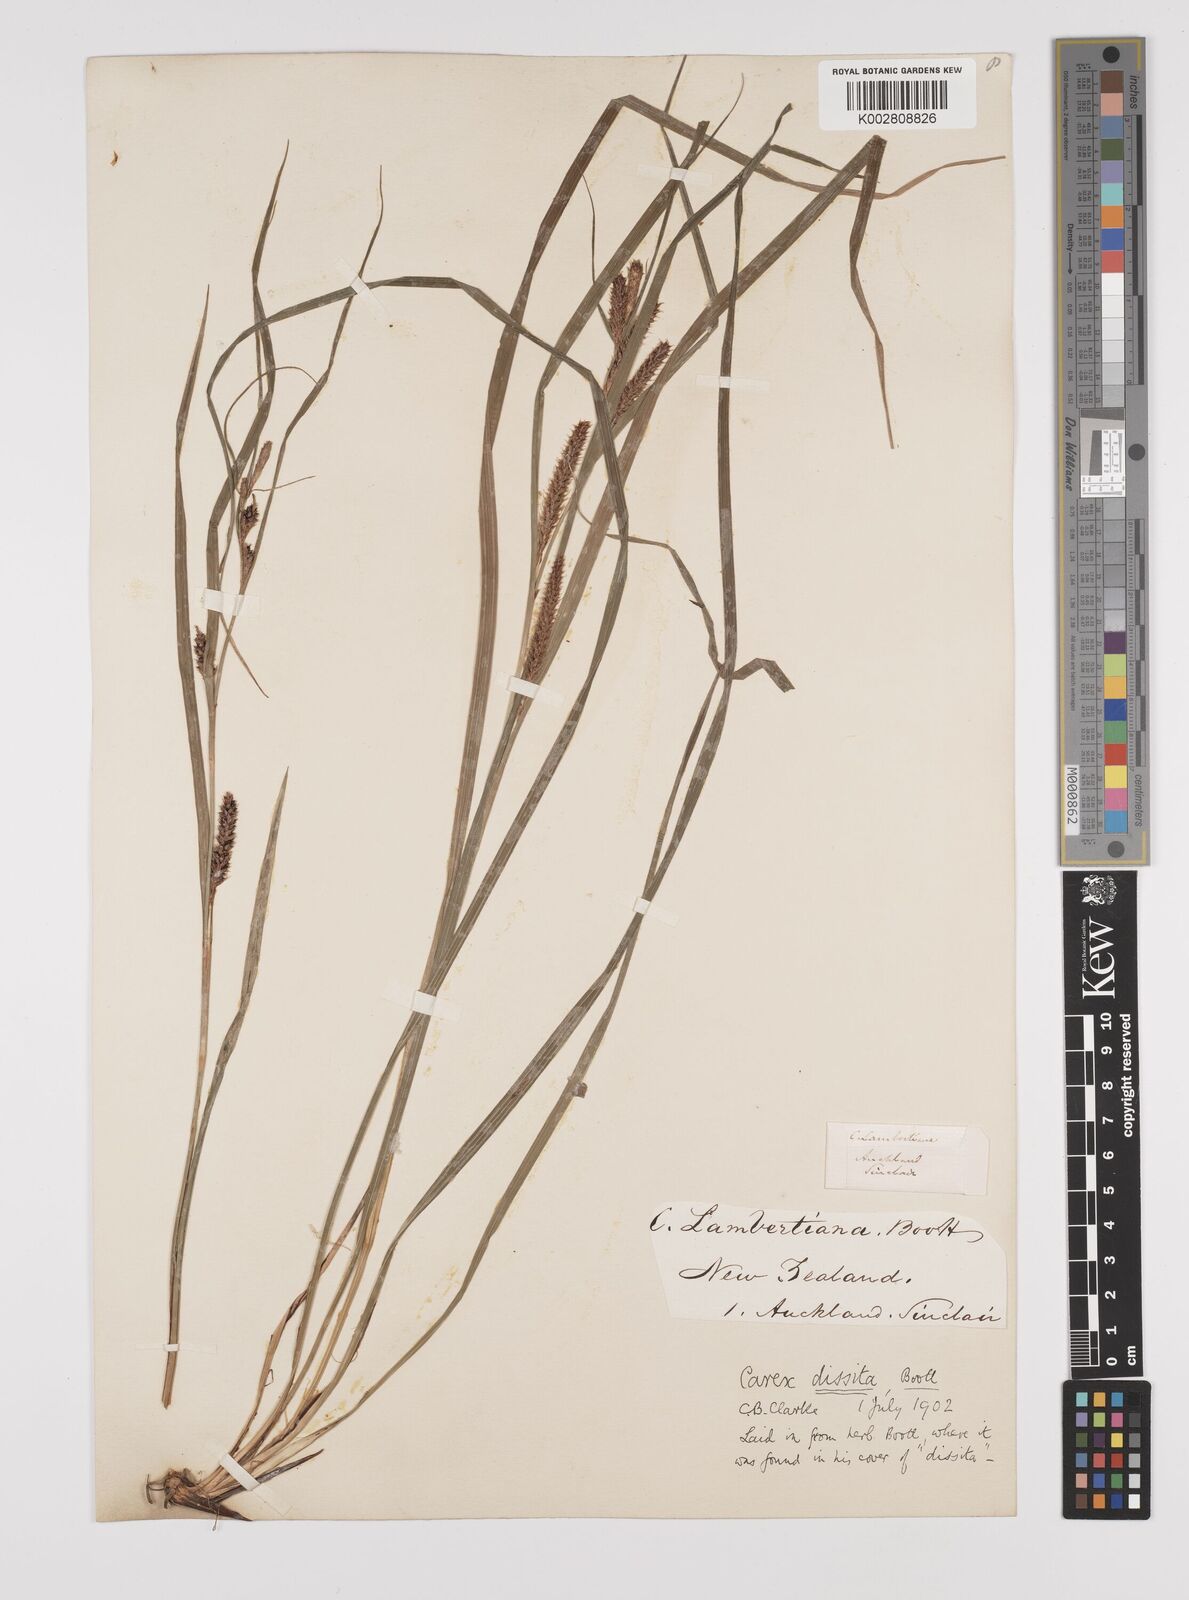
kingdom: Plantae
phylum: Tracheophyta
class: Liliopsida
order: Poales
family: Cyperaceae
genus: Carex
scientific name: Carex dissita
